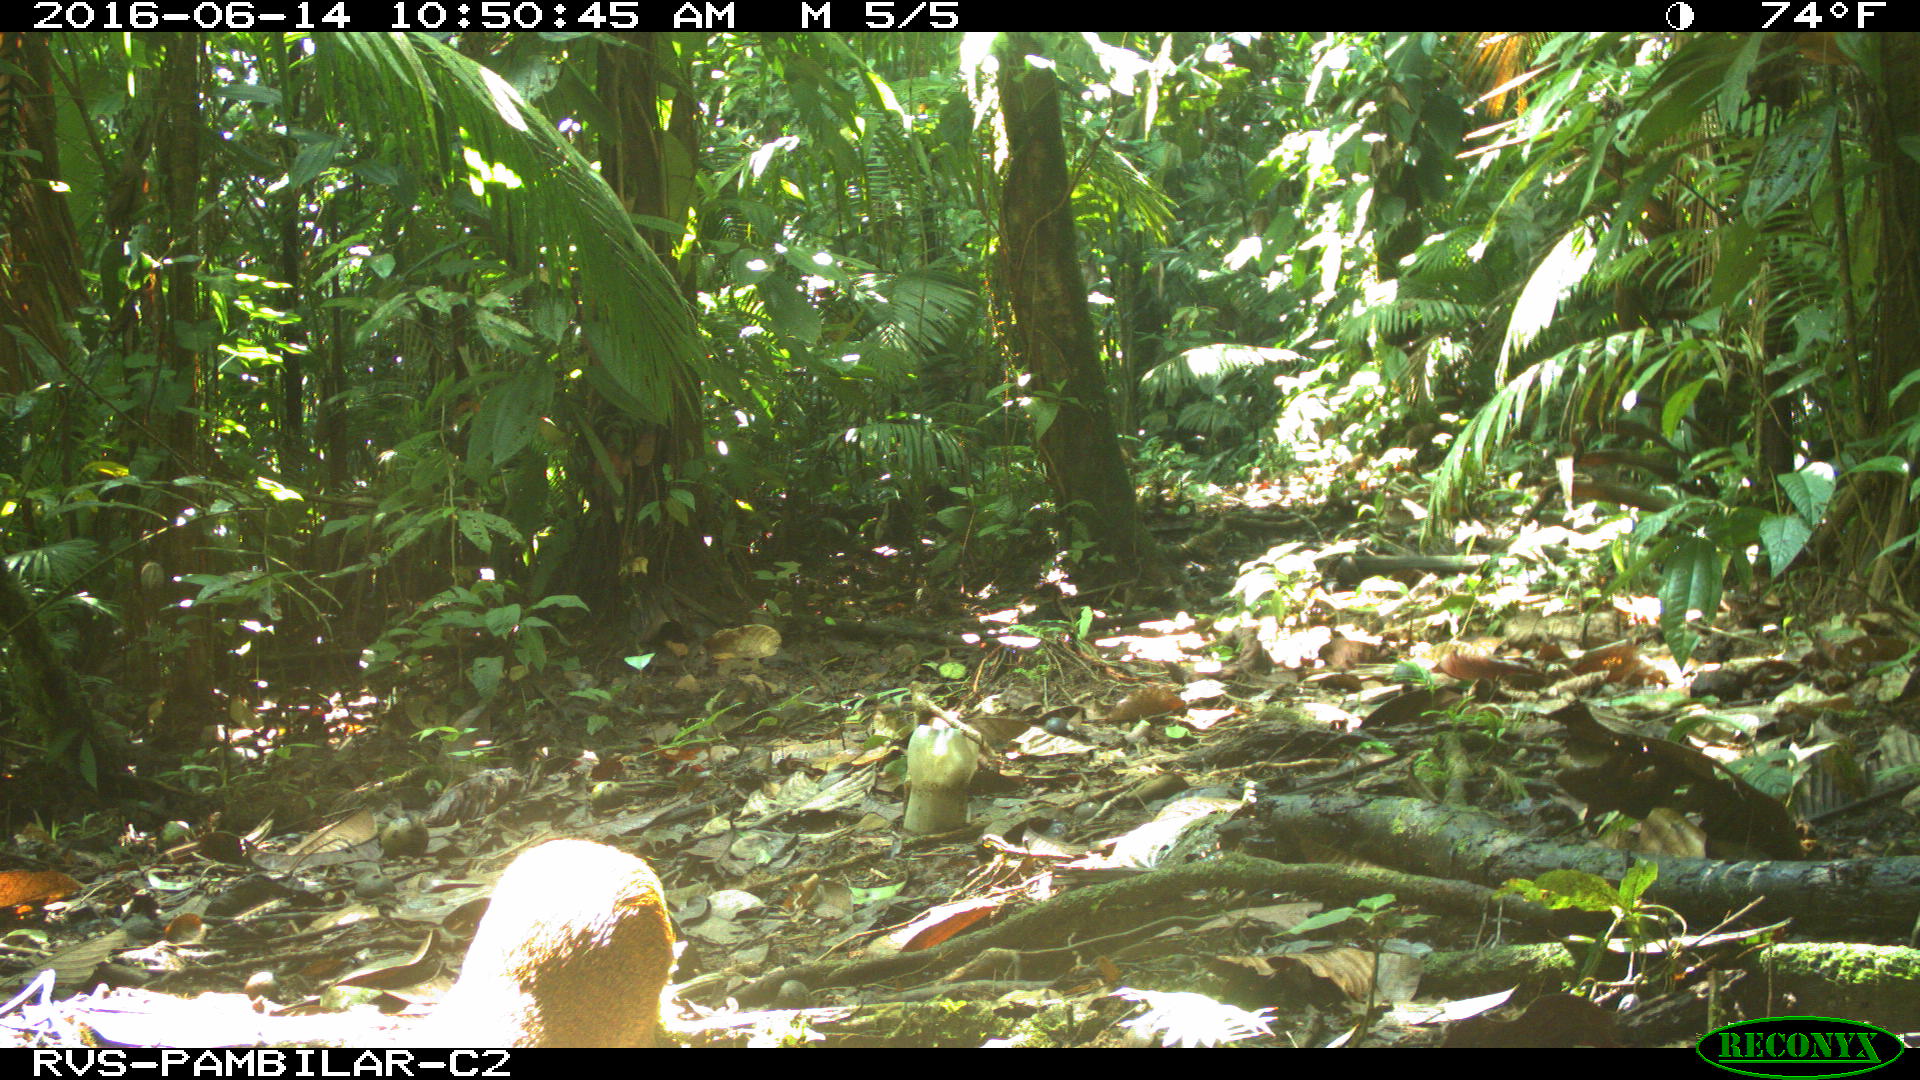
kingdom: Animalia
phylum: Chordata
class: Mammalia
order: Rodentia
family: Dasyproctidae
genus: Dasyprocta
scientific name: Dasyprocta punctata
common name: Central american agouti
